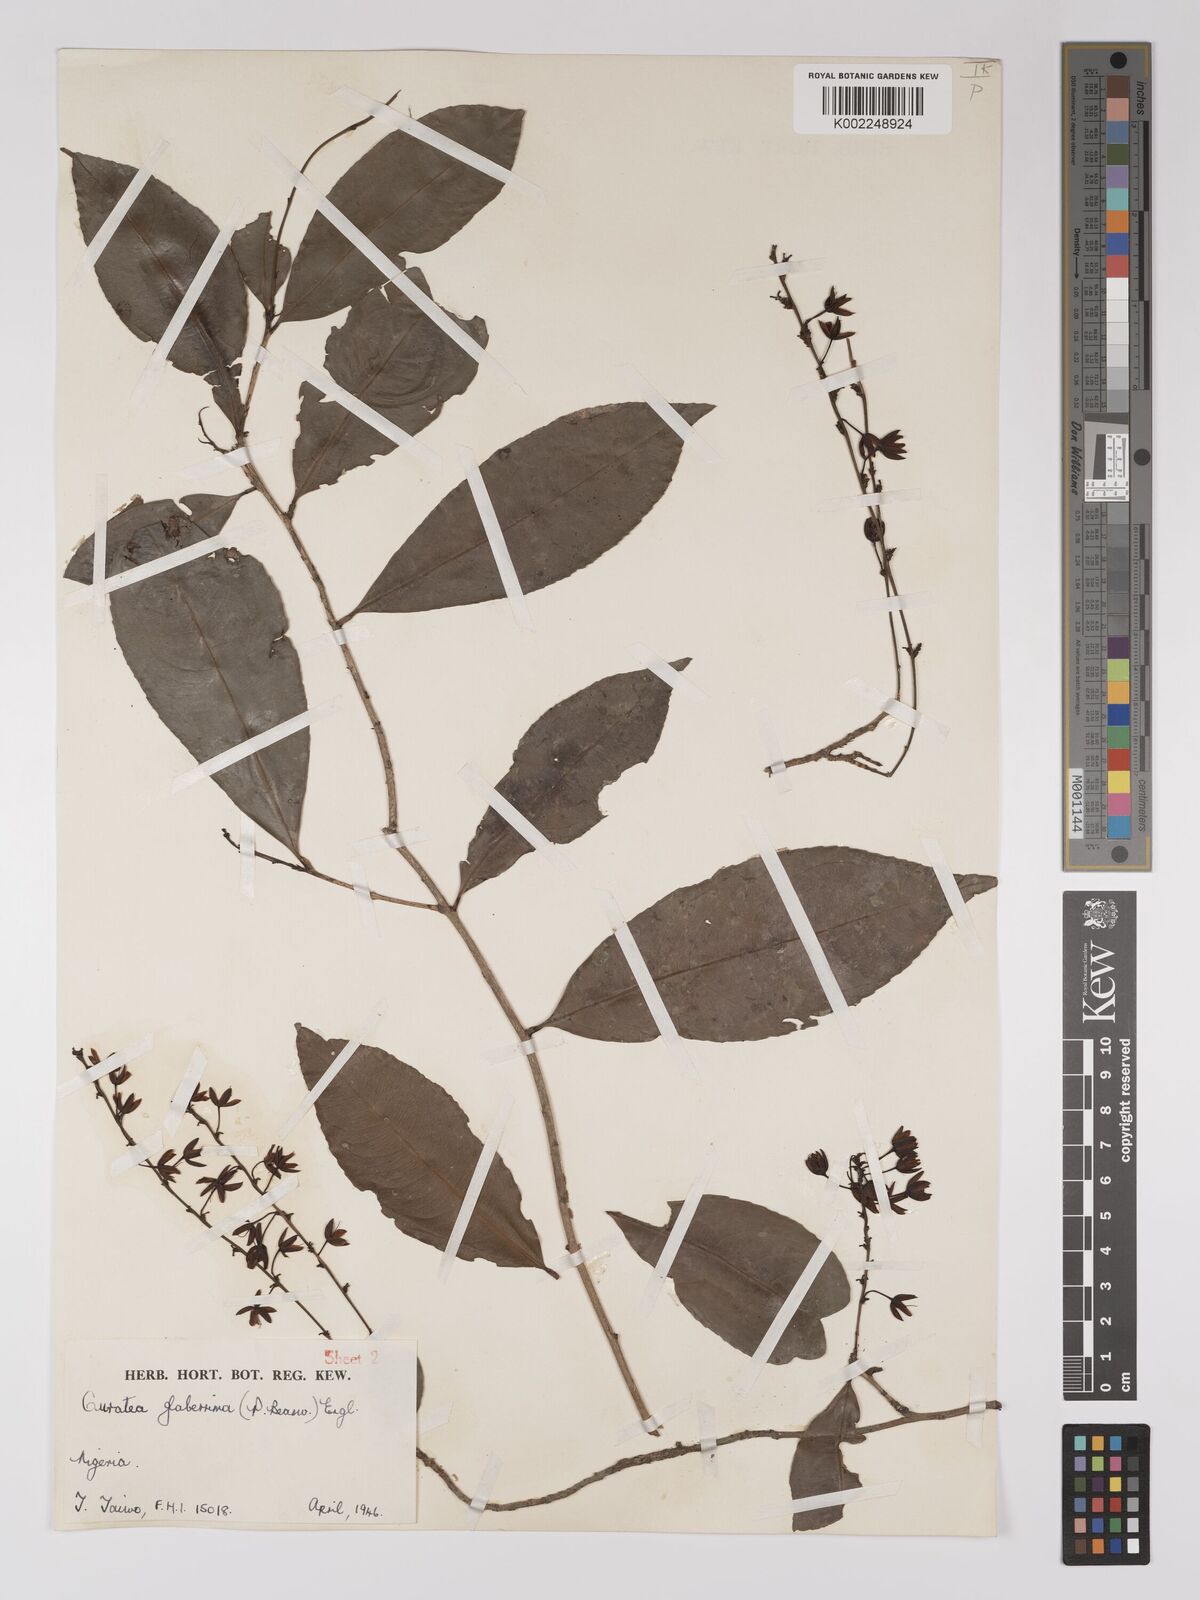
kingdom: Plantae
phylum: Tracheophyta
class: Magnoliopsida
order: Malpighiales
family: Ochnaceae
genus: Campylospermum
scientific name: Campylospermum glaberrimum
